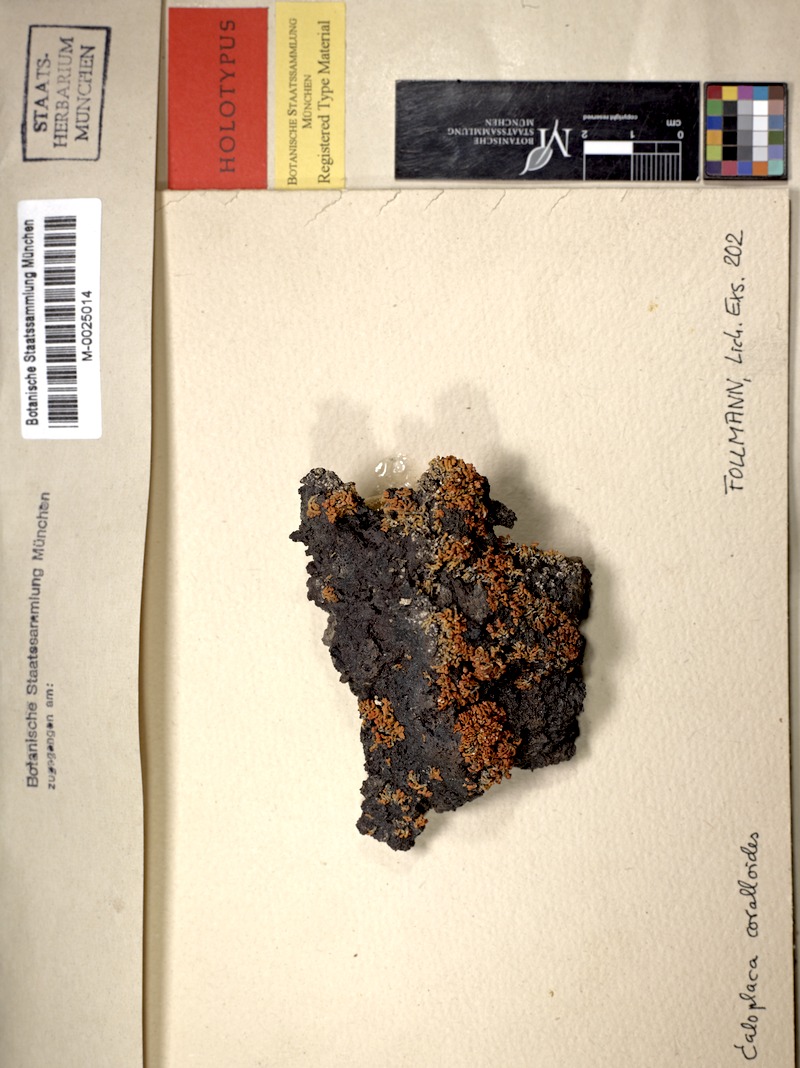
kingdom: Fungi
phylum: Ascomycota
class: Lecanoromycetes
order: Teloschistales
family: Teloschistaceae
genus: Polycauliona
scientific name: Polycauliona thamnodes
